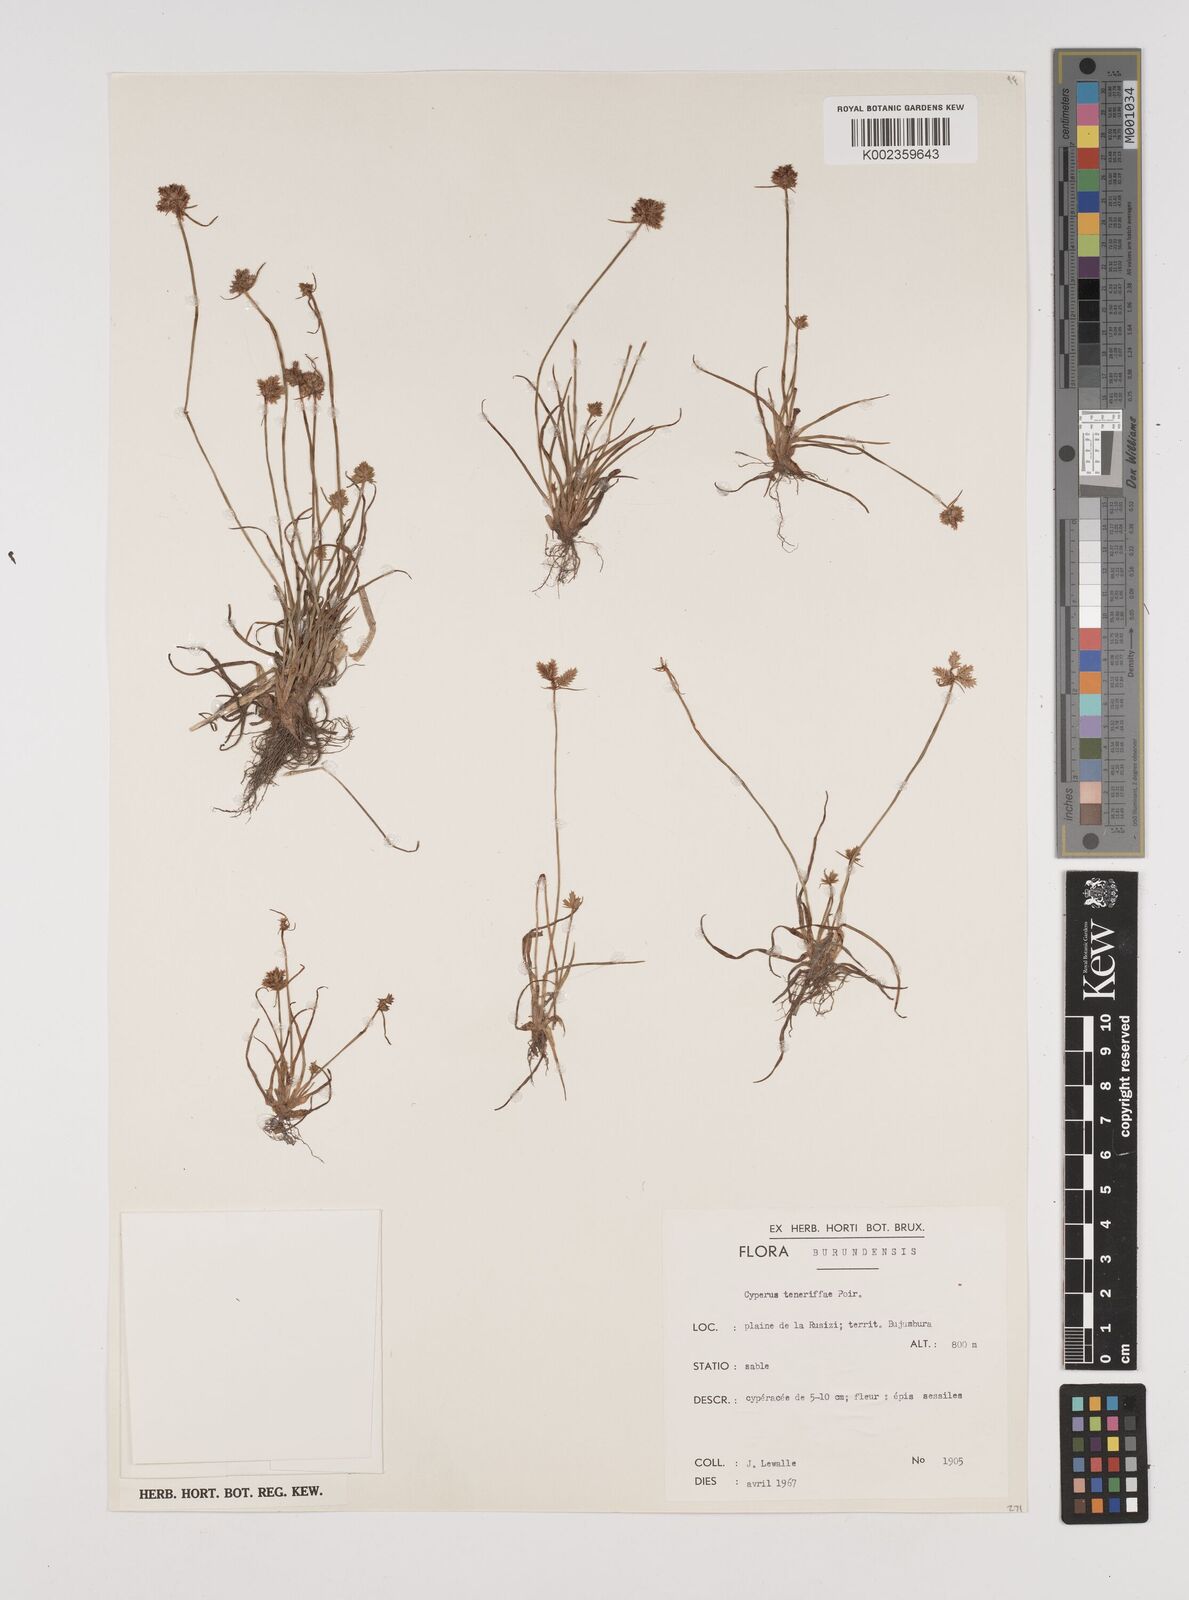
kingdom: Plantae
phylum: Tracheophyta
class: Liliopsida
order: Poales
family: Cyperaceae
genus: Cyperus
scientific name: Cyperus rubicundus
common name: Coco-grass
